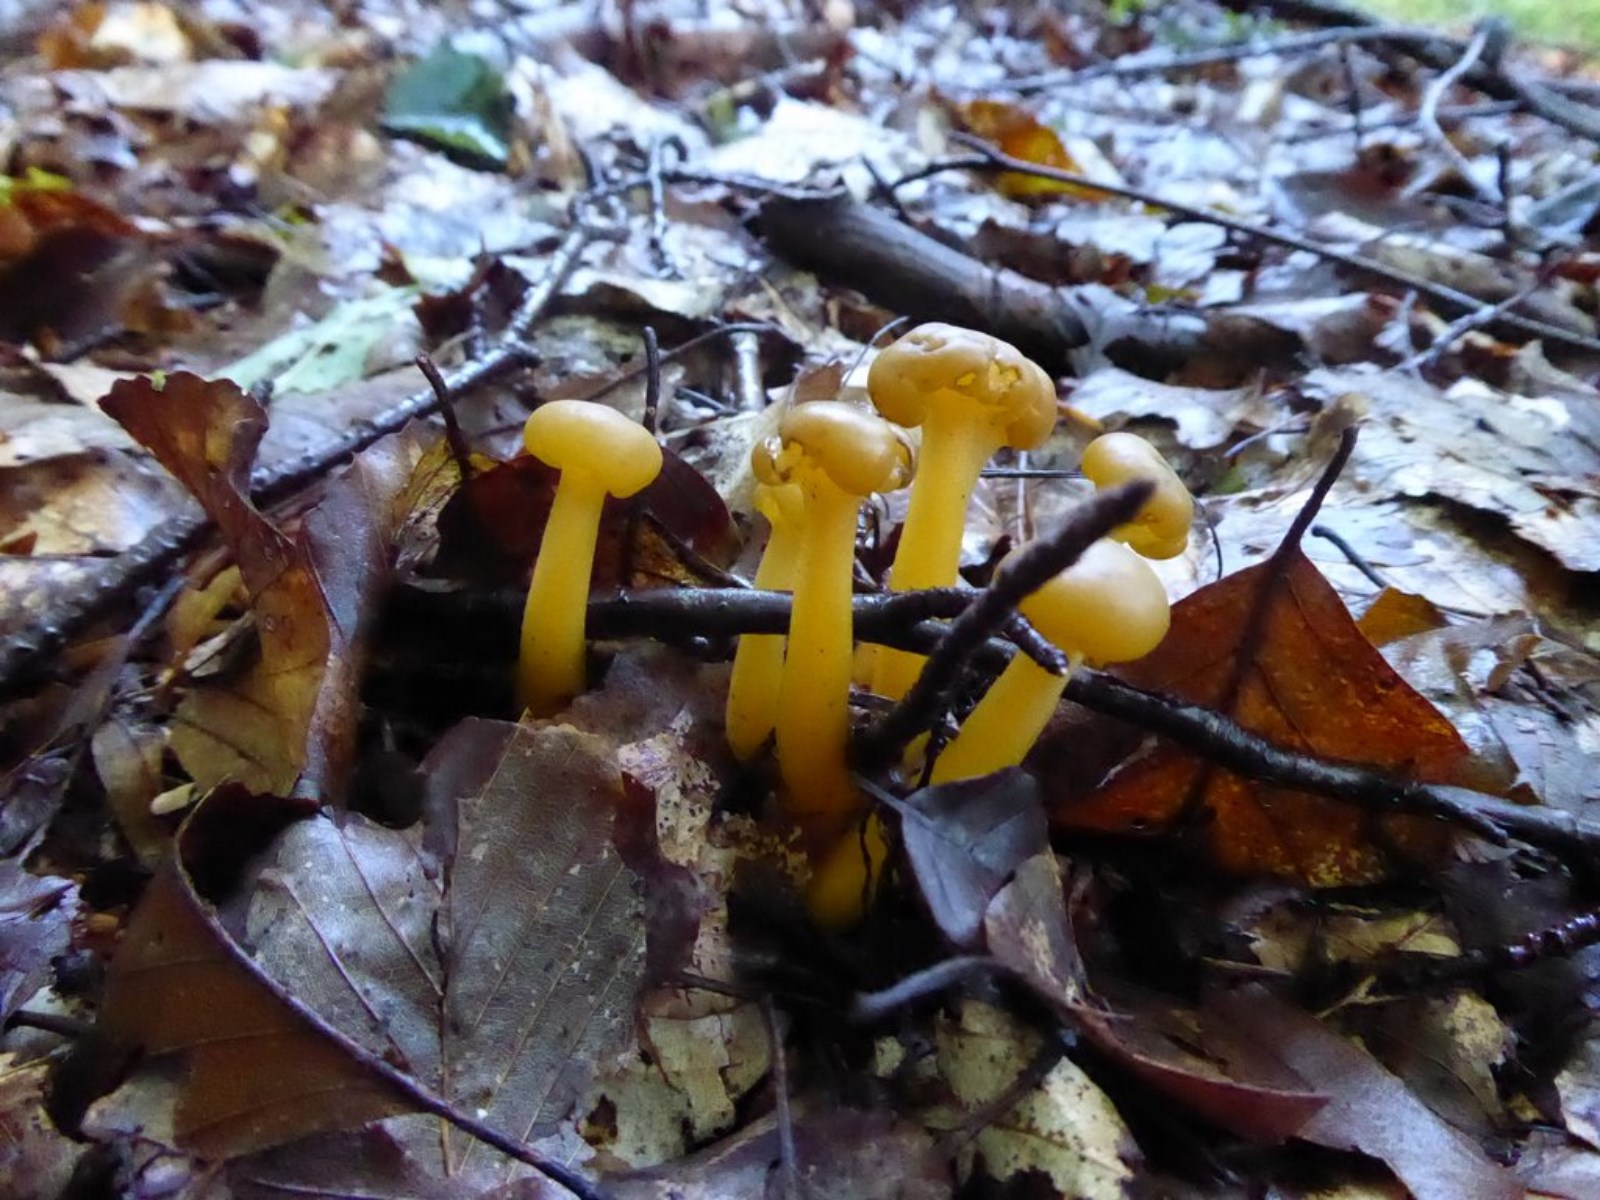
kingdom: Fungi
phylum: Ascomycota
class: Leotiomycetes
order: Leotiales
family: Leotiaceae
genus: Leotia
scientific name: Leotia lubrica
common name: ravsvamp
